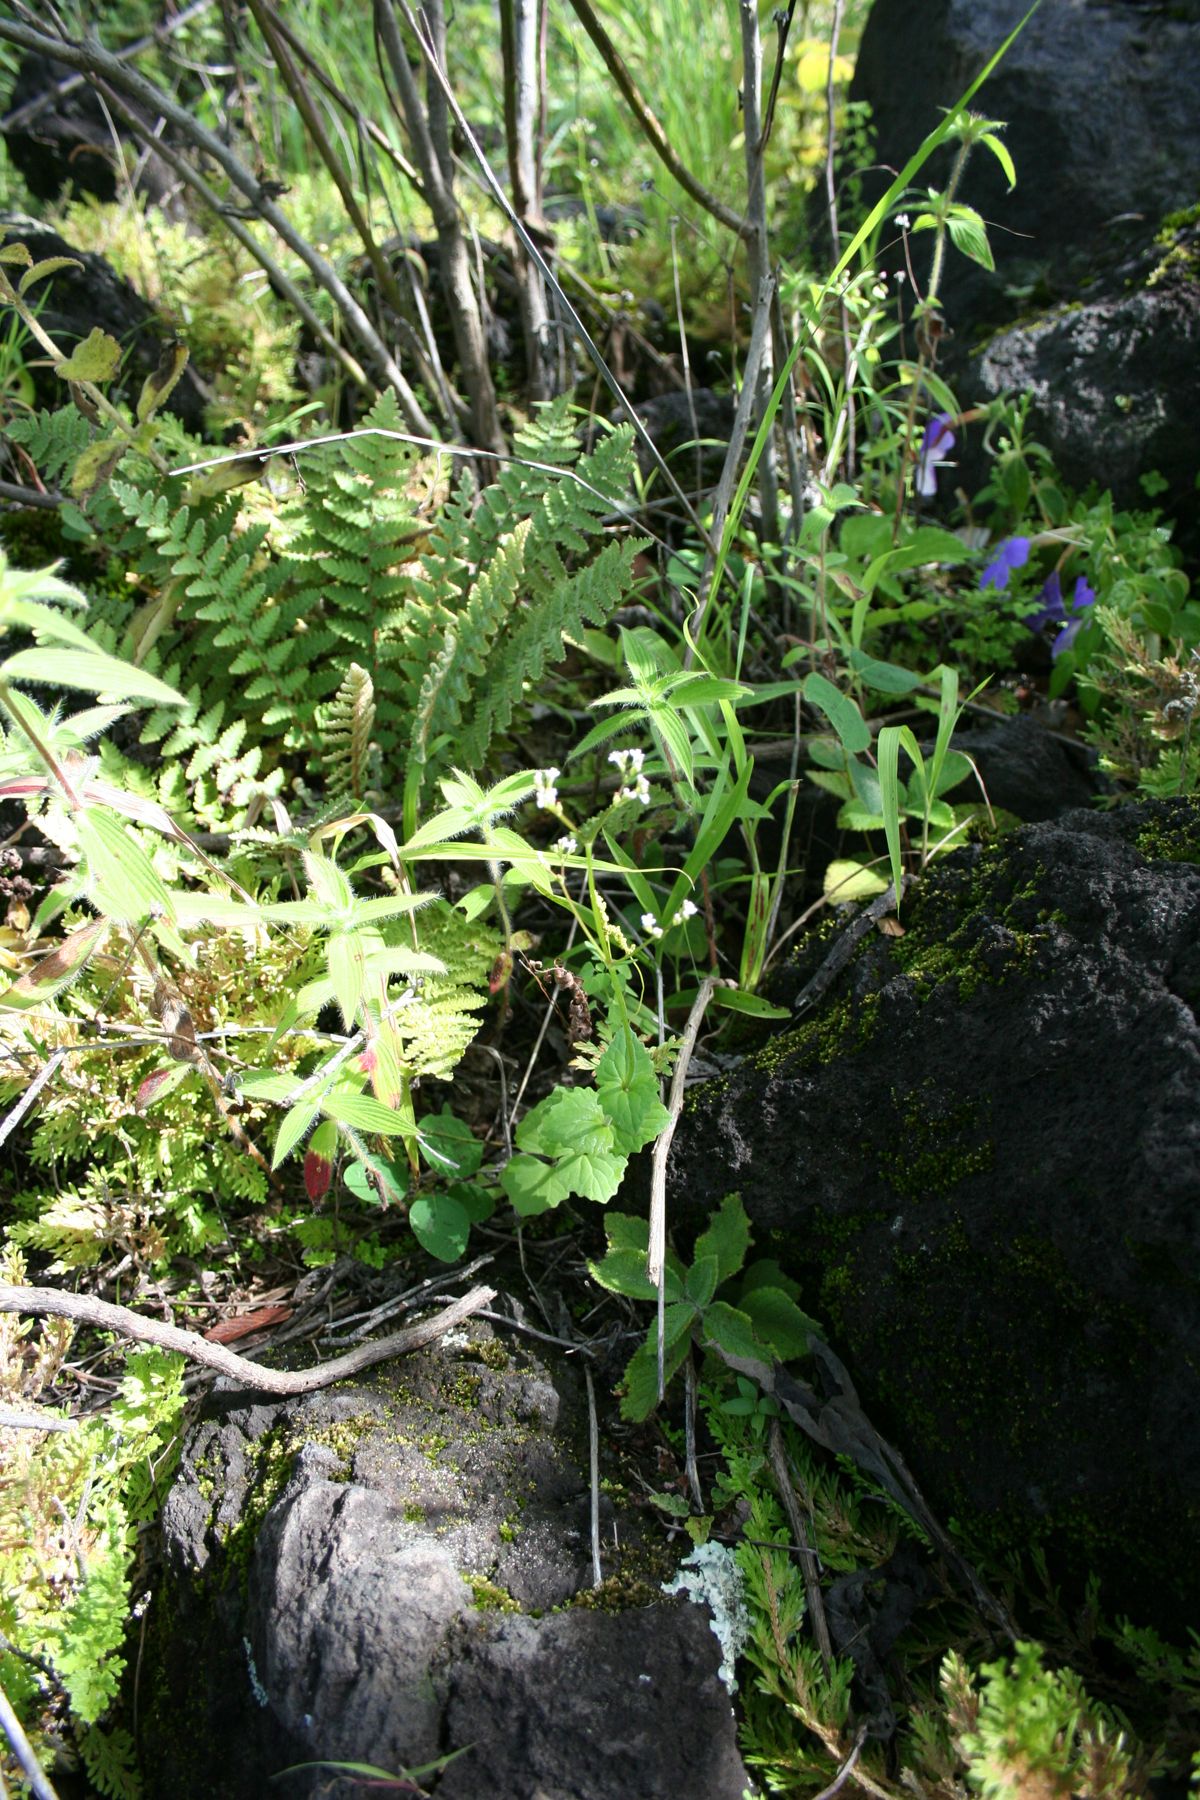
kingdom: Plantae
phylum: Tracheophyta
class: Magnoliopsida
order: Dipsacales
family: Caprifoliaceae
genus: Valeriana
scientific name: Valeriana urticifolia
